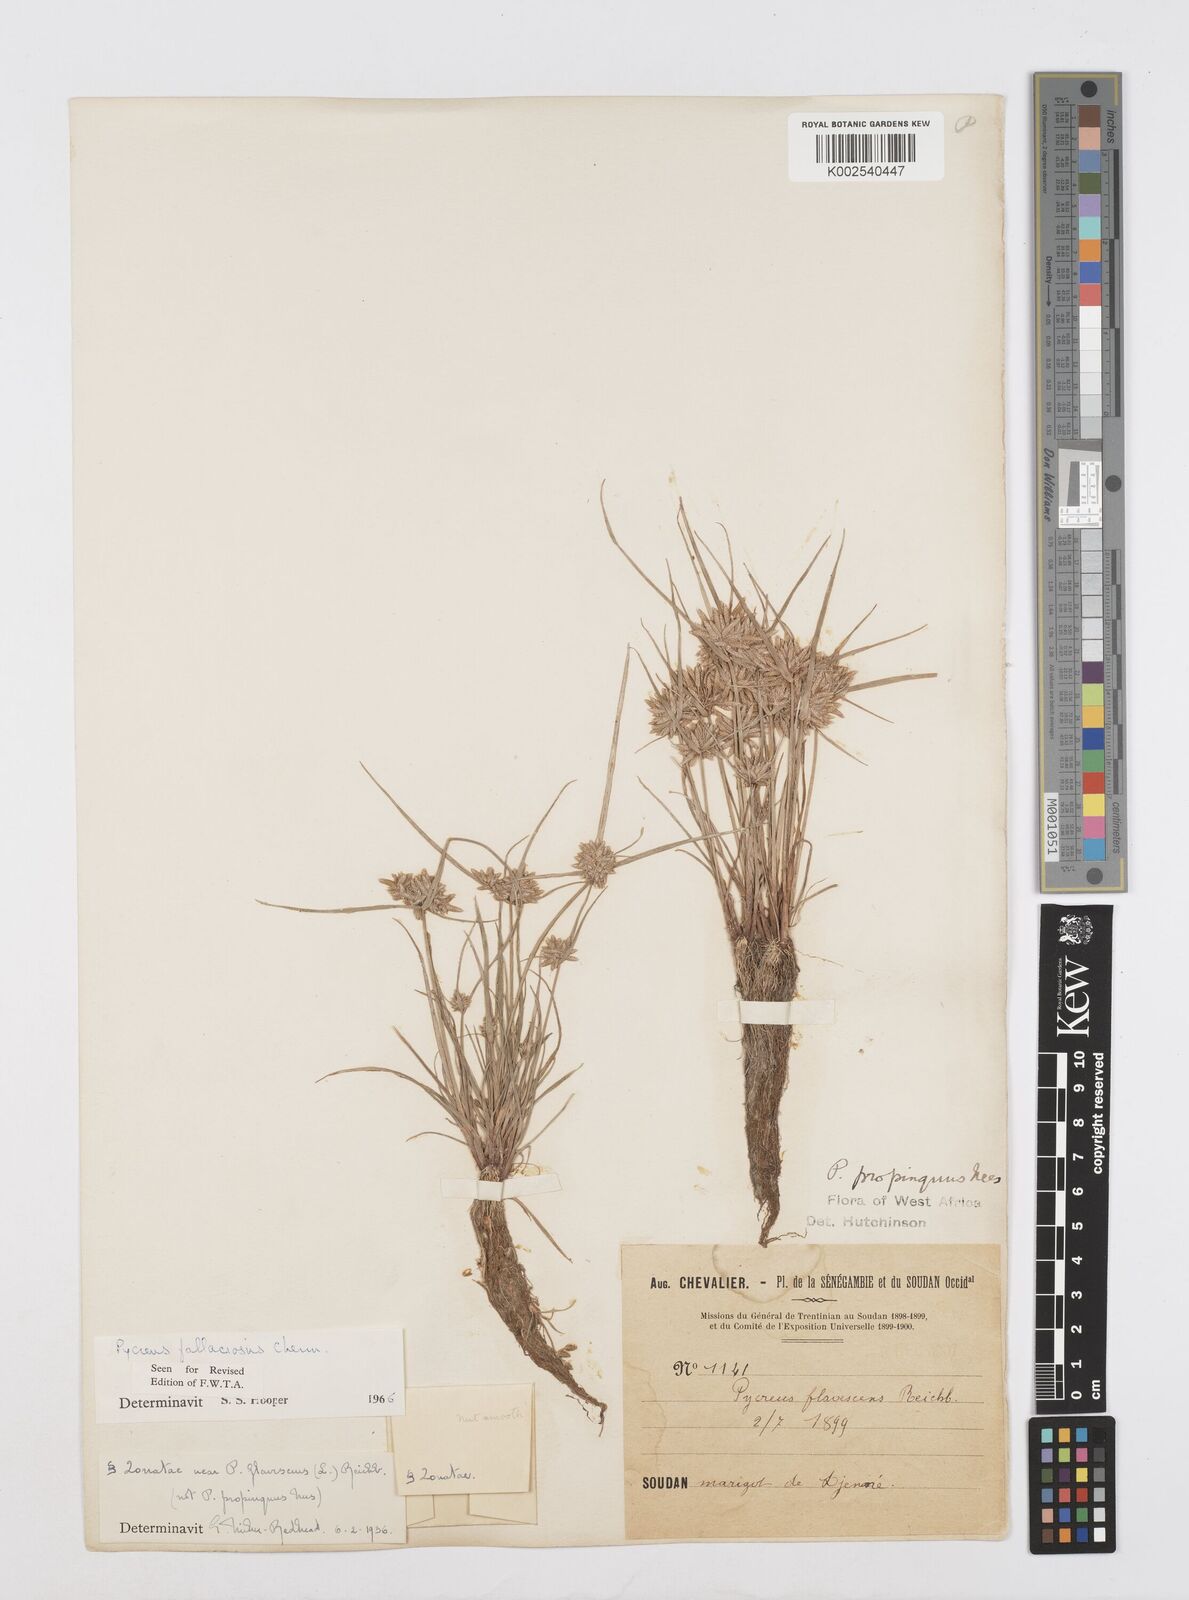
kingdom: Plantae
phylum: Tracheophyta
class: Liliopsida
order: Poales
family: Cyperaceae
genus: Cyperus
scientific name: Cyperus flavescens
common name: Yellow galingale
